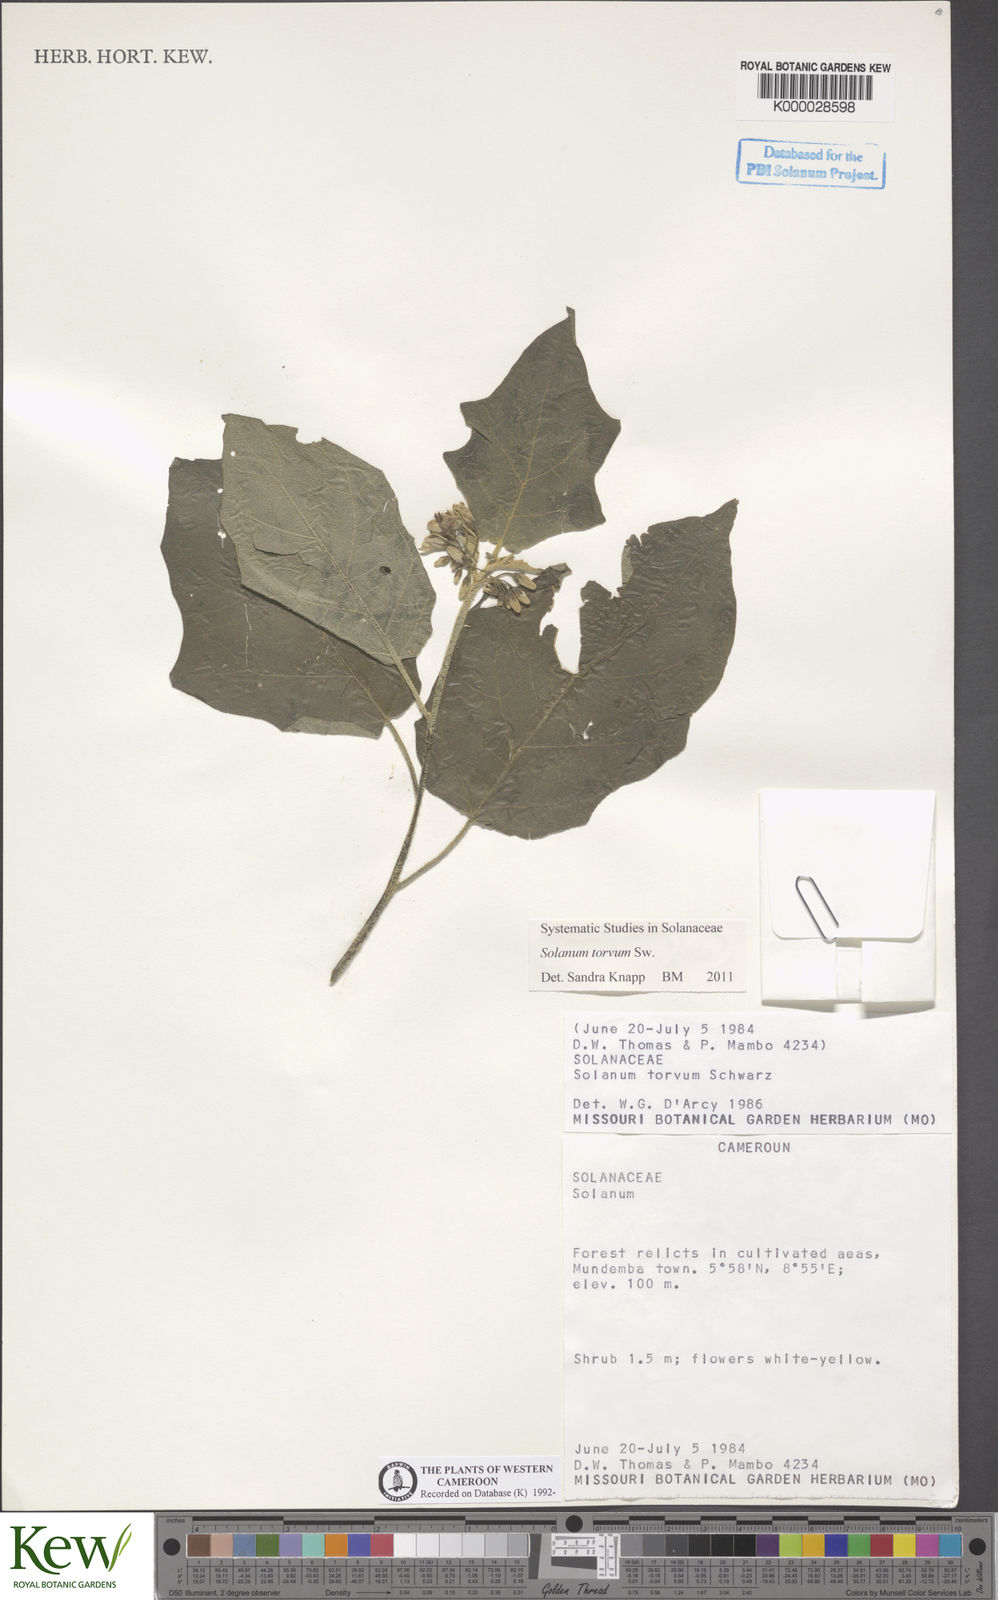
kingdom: Plantae
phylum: Tracheophyta
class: Magnoliopsida
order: Solanales
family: Solanaceae
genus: Solanum
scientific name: Solanum torvum
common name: Turkey berry
